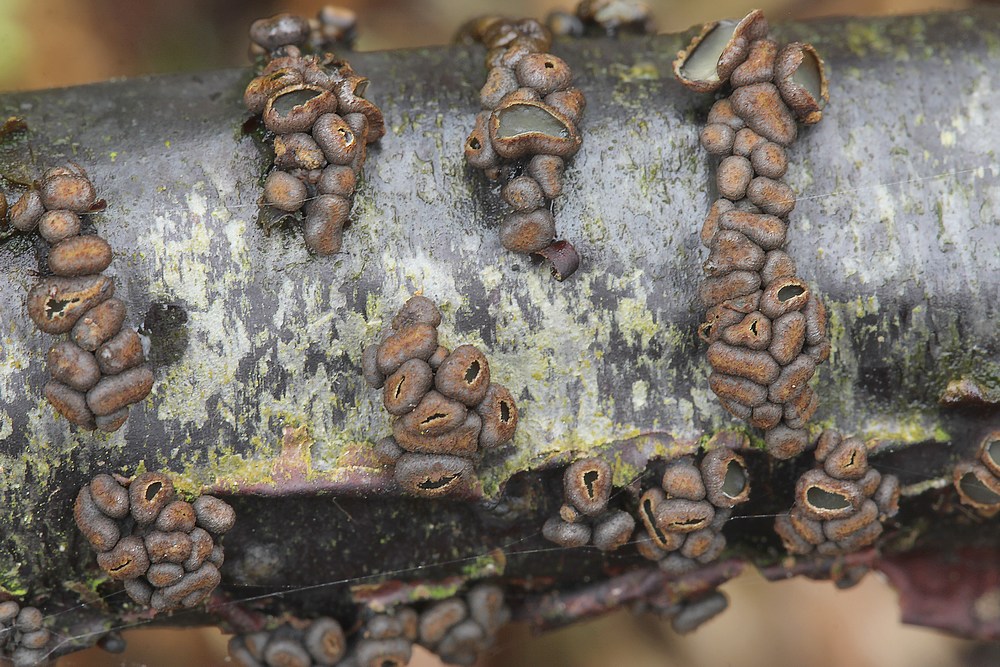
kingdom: Fungi
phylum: Ascomycota
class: Leotiomycetes
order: Helotiales
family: Godroniaceae
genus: Godronia
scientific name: Godronia uberiformis
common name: solbær-urneskive
